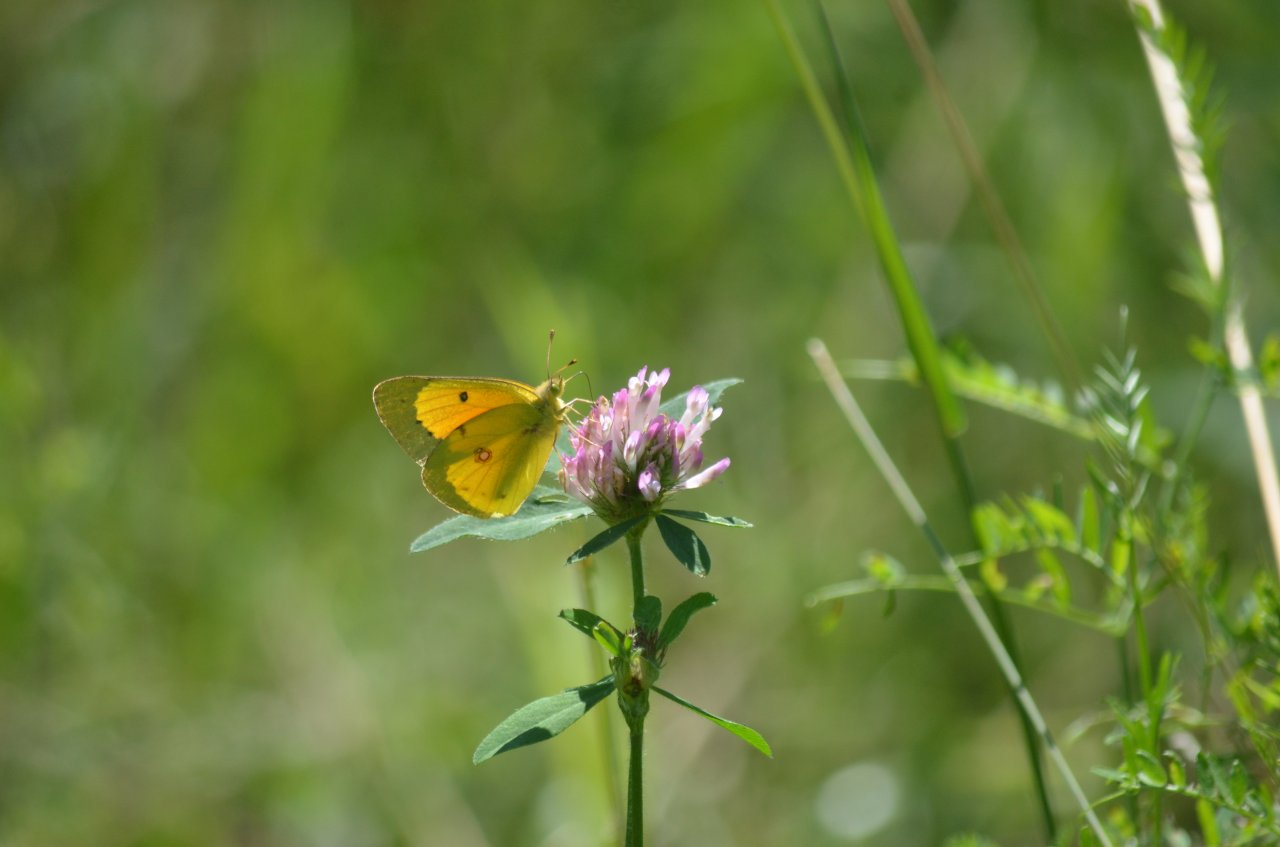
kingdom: Animalia
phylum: Arthropoda
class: Insecta
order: Lepidoptera
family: Pieridae
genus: Colias
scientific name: Colias eurytheme
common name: Orange Sulphur
